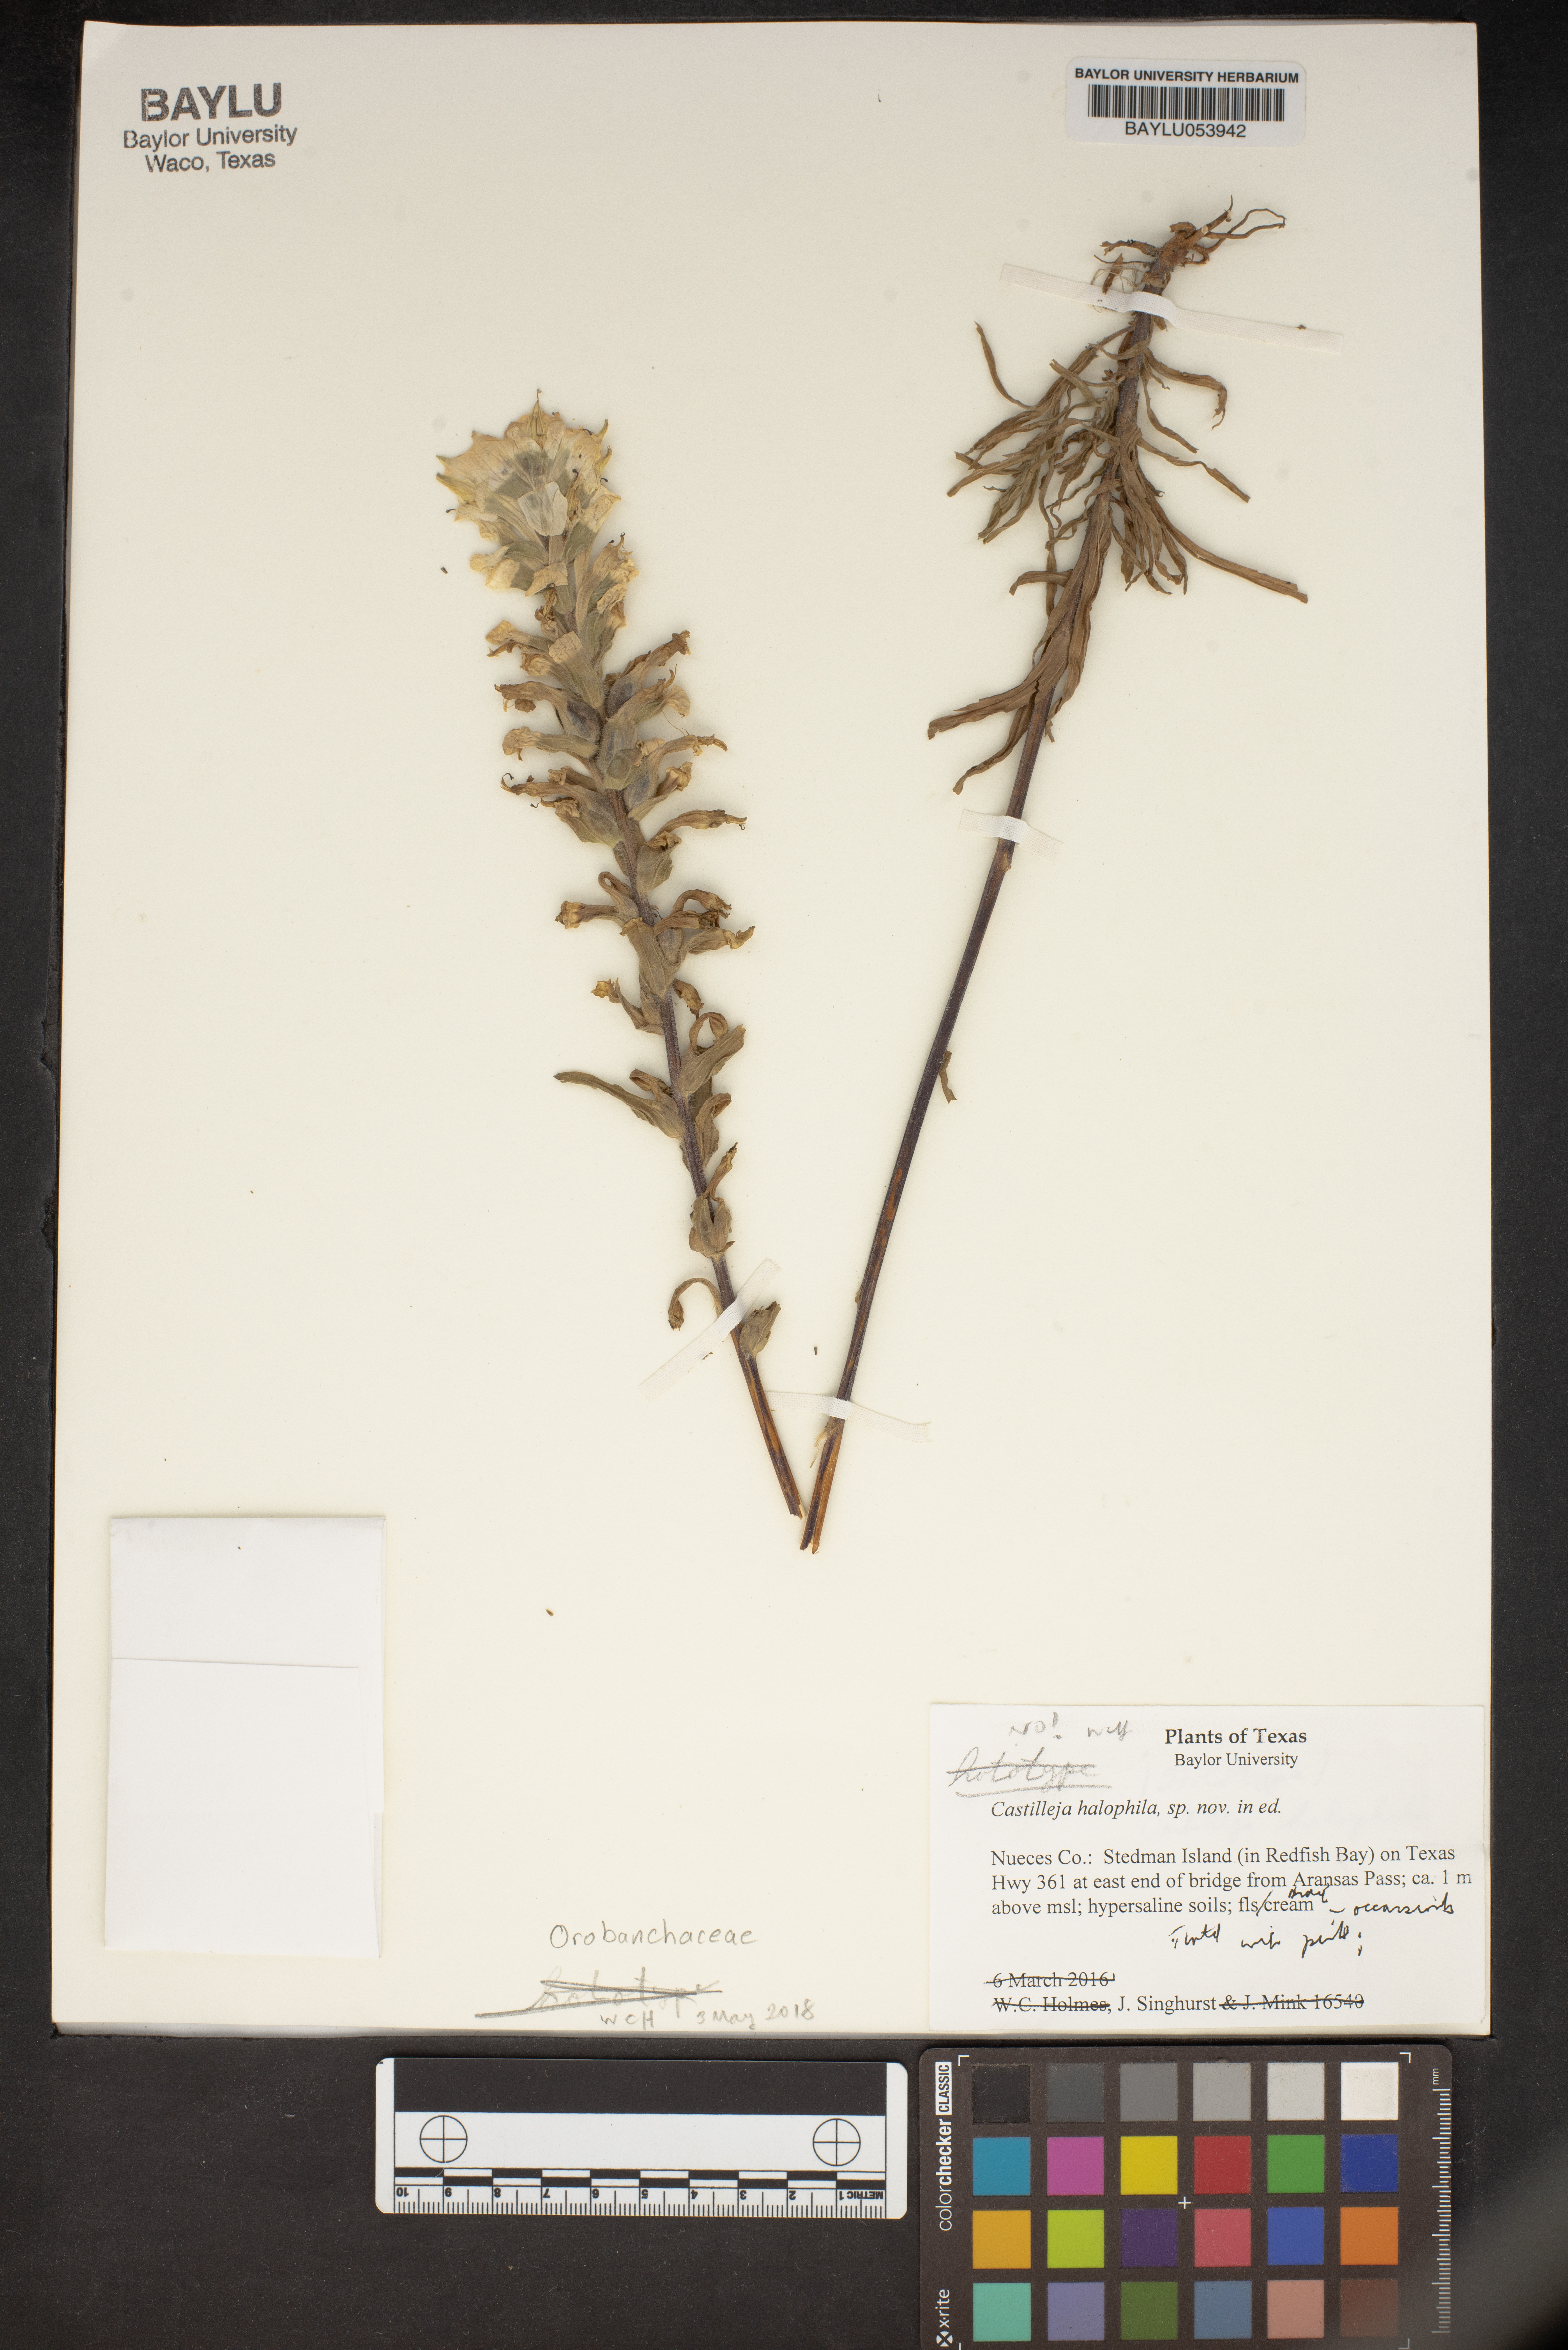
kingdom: Plantae
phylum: Tracheophyta
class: Magnoliopsida
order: Lamiales
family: Orobanchaceae
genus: Castilleja
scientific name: Castilleja halophila
